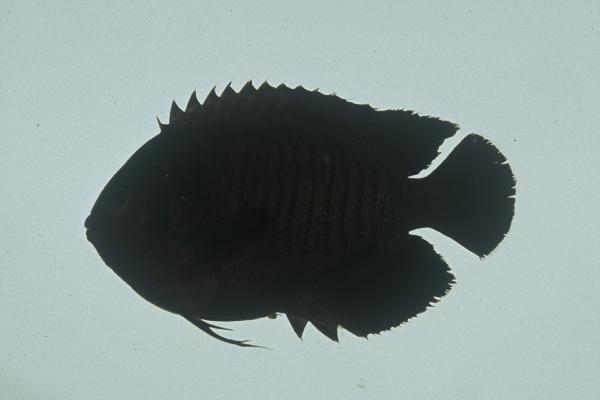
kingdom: Animalia
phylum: Chordata
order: Perciformes
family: Pomacanthidae
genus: Centropyge
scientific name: Centropyge multispinis
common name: Many-spined angelfish
